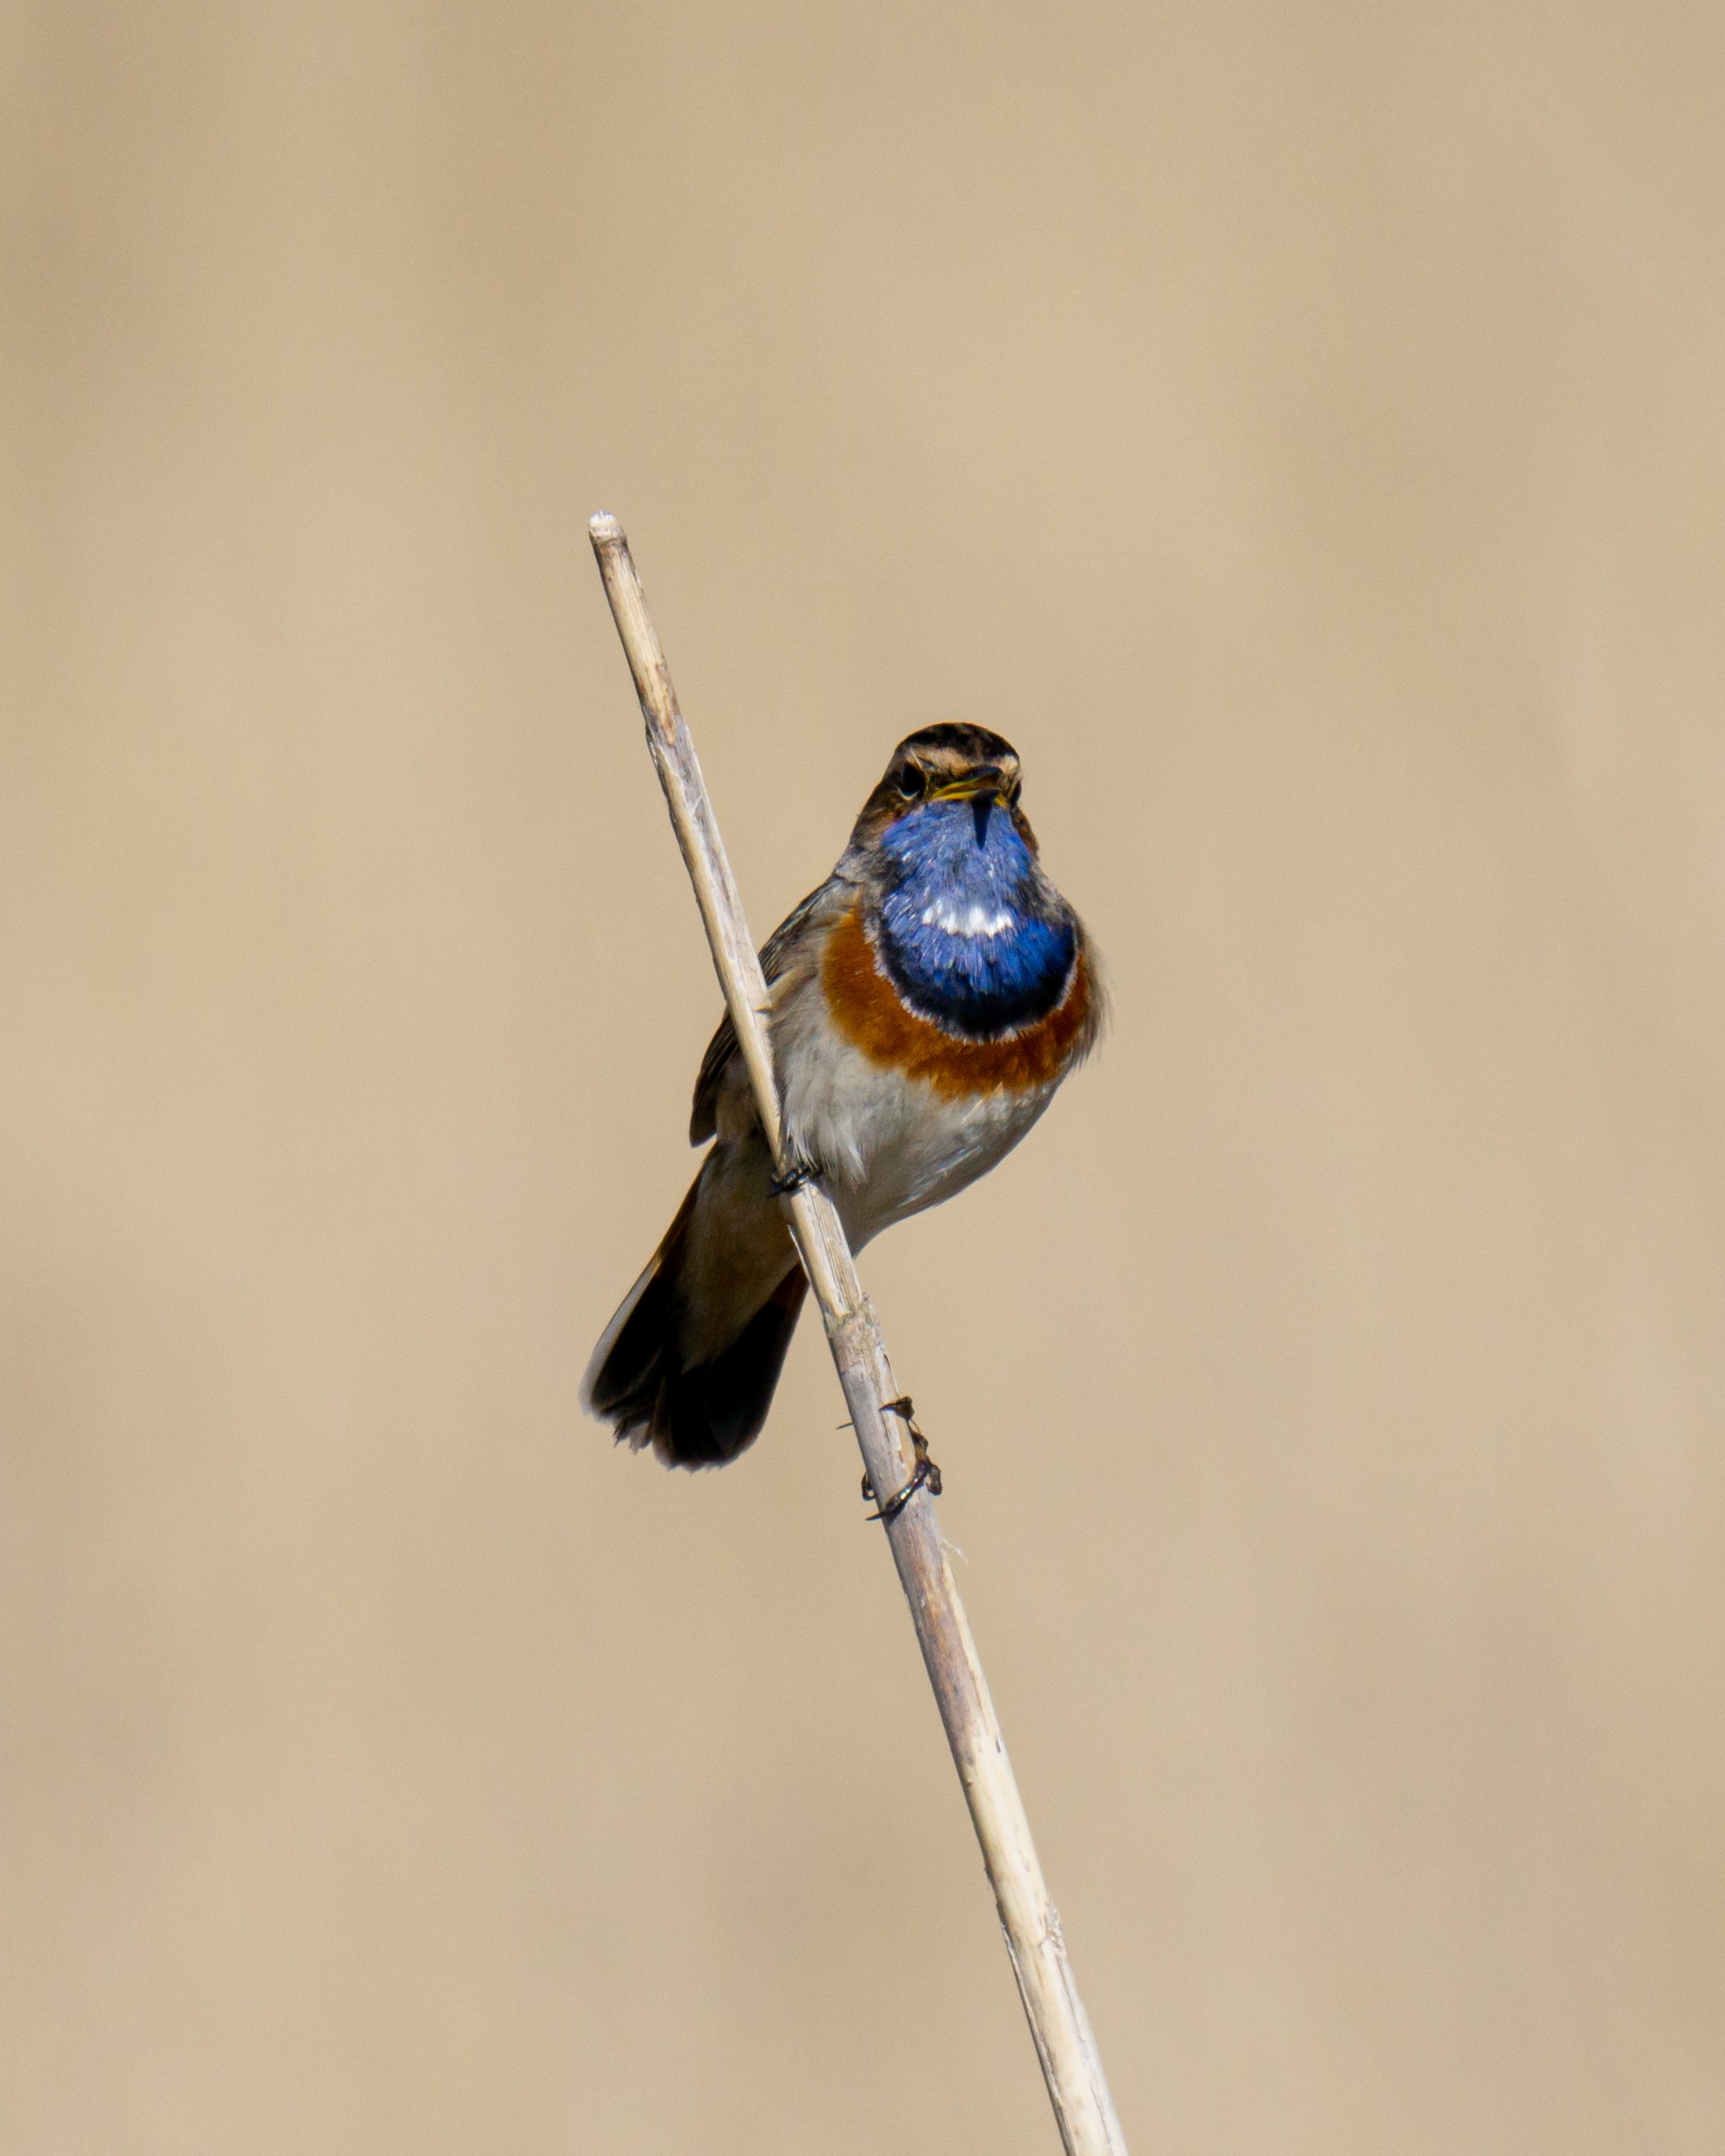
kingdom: Animalia
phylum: Chordata
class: Aves
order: Passeriformes
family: Muscicapidae
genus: Luscinia
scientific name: Luscinia svecica
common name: Sydlig blåhals
